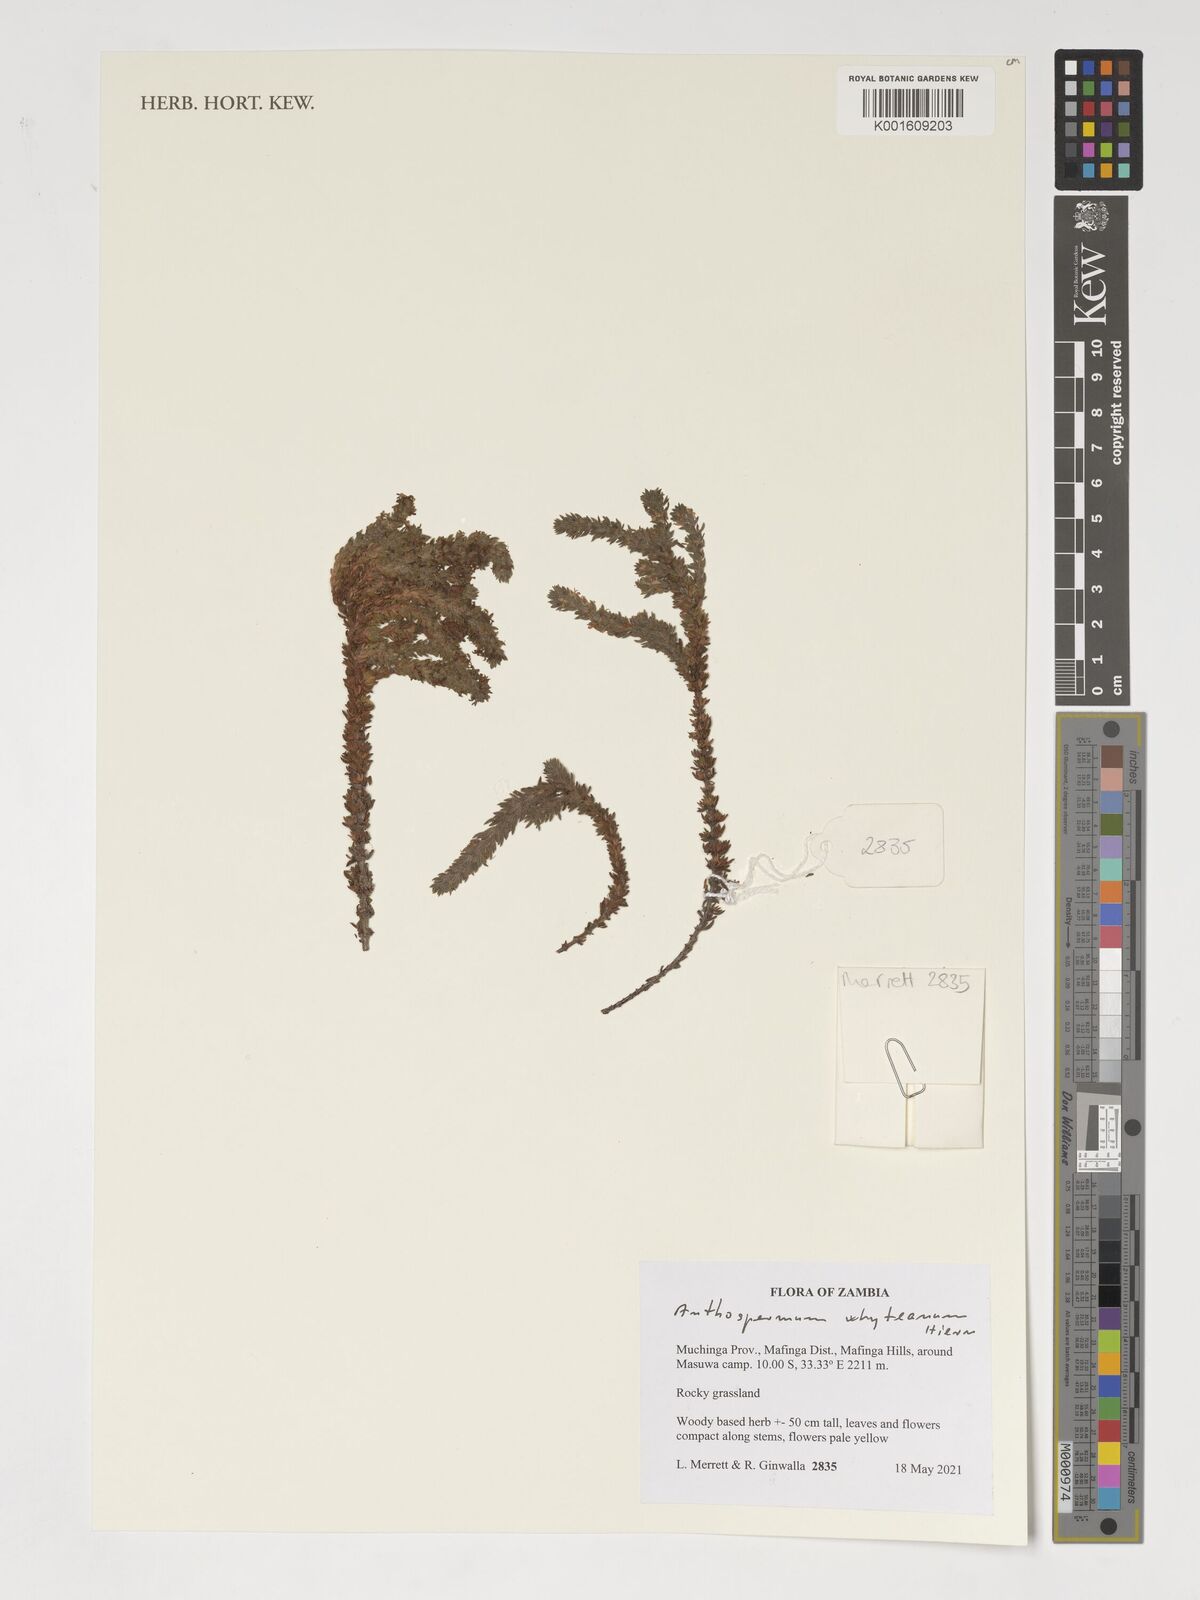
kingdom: Plantae
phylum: Tracheophyta
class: Magnoliopsida
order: Gentianales
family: Rubiaceae
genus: Anthospermum
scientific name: Anthospermum whyteanum
